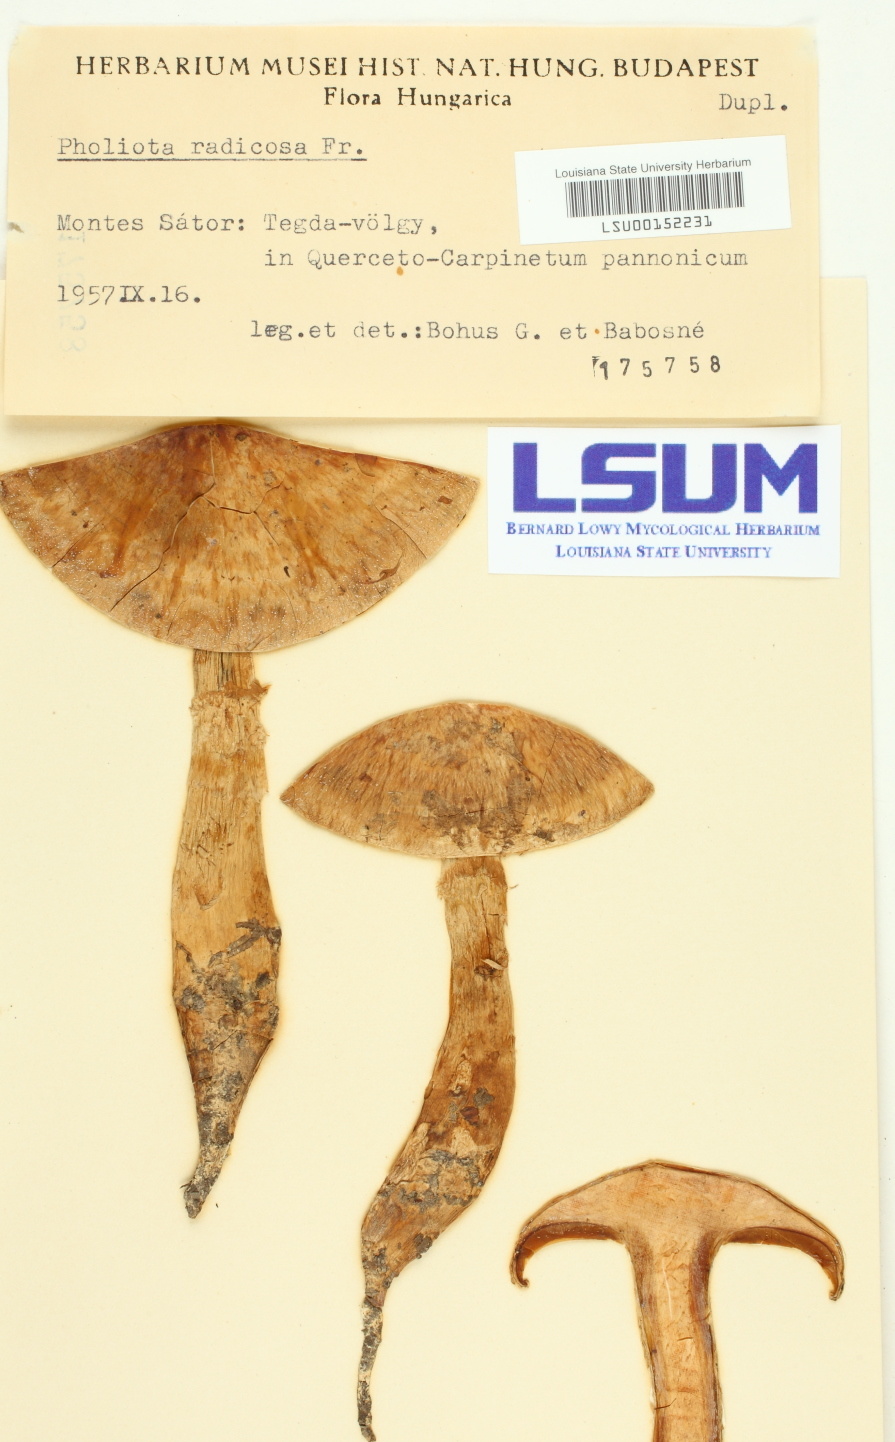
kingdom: Fungi
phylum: Basidiomycota
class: Agaricomycetes
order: Agaricales
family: Hymenogastraceae
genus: Hebeloma
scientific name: Hebeloma radicosum
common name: Rooting poisonpie
